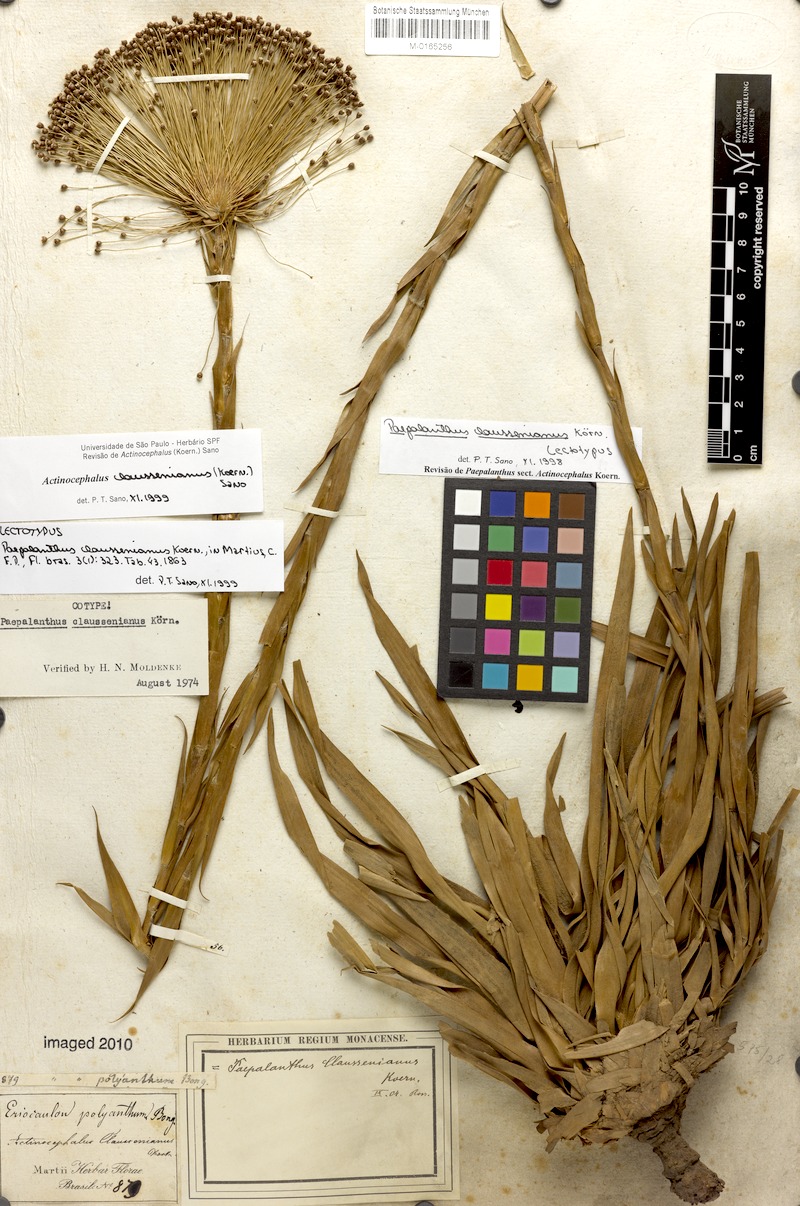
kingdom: Plantae
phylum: Tracheophyta
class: Liliopsida
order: Poales
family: Eriocaulaceae
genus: Paepalanthus
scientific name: Paepalanthus claussenianus
